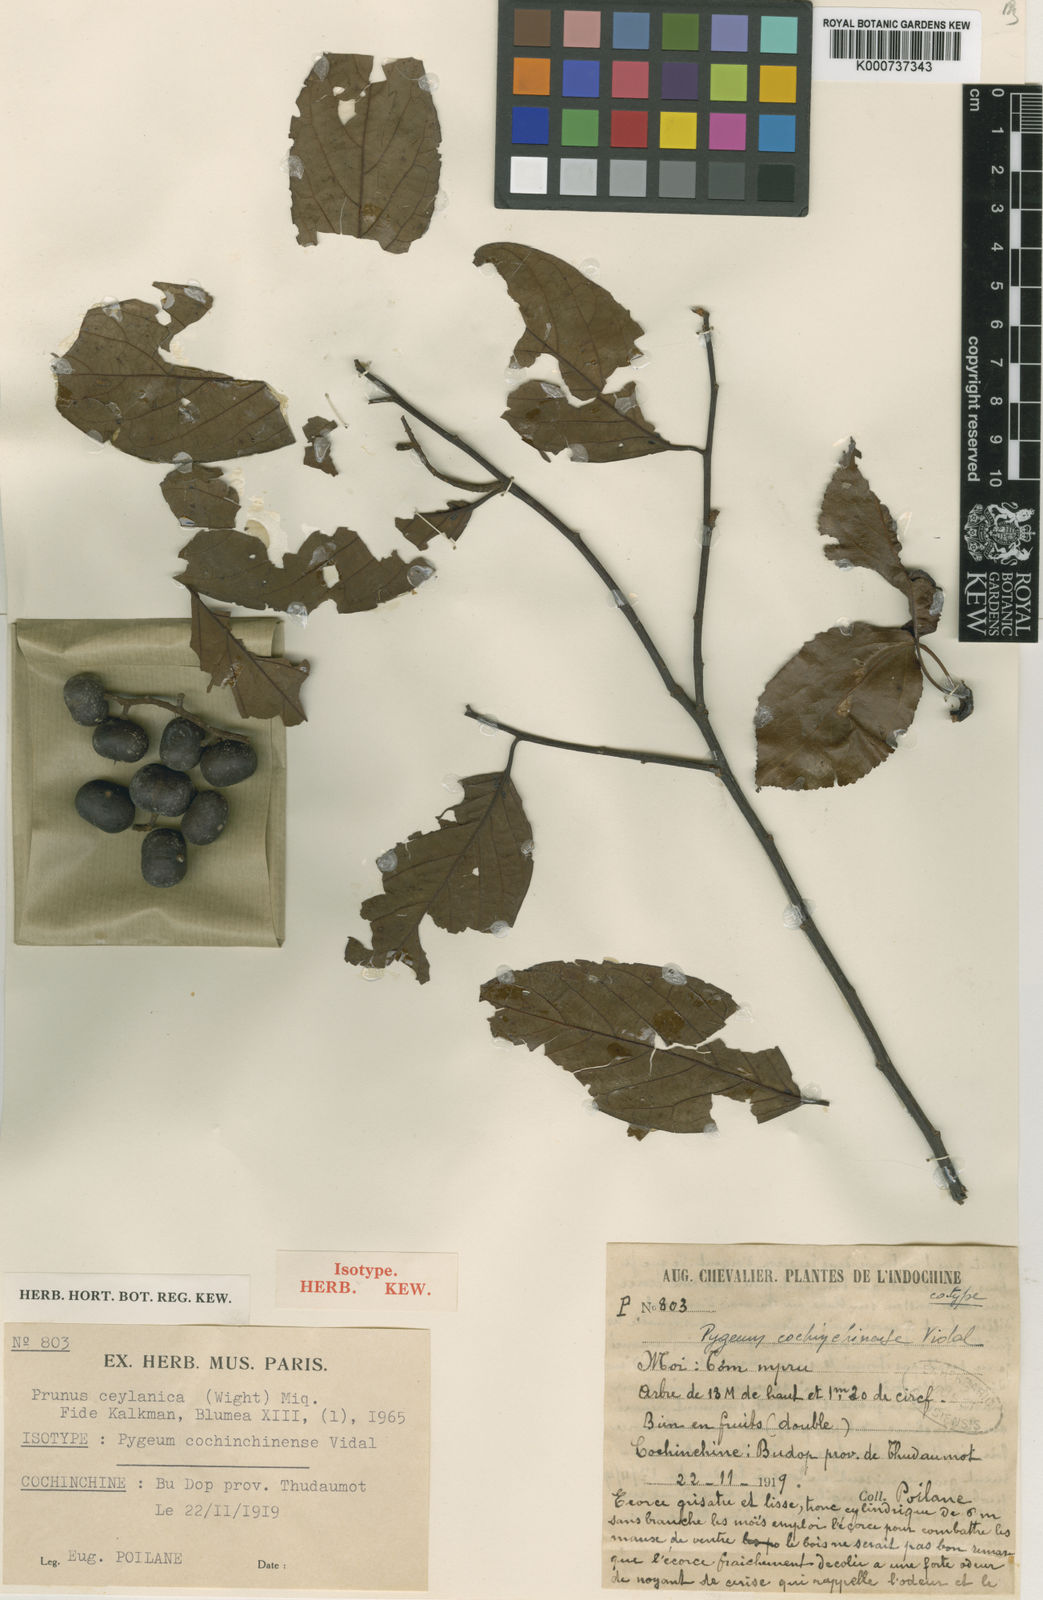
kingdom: Plantae
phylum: Tracheophyta
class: Magnoliopsida
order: Rosales
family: Rosaceae
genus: Prunus
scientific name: Prunus ceylanica
